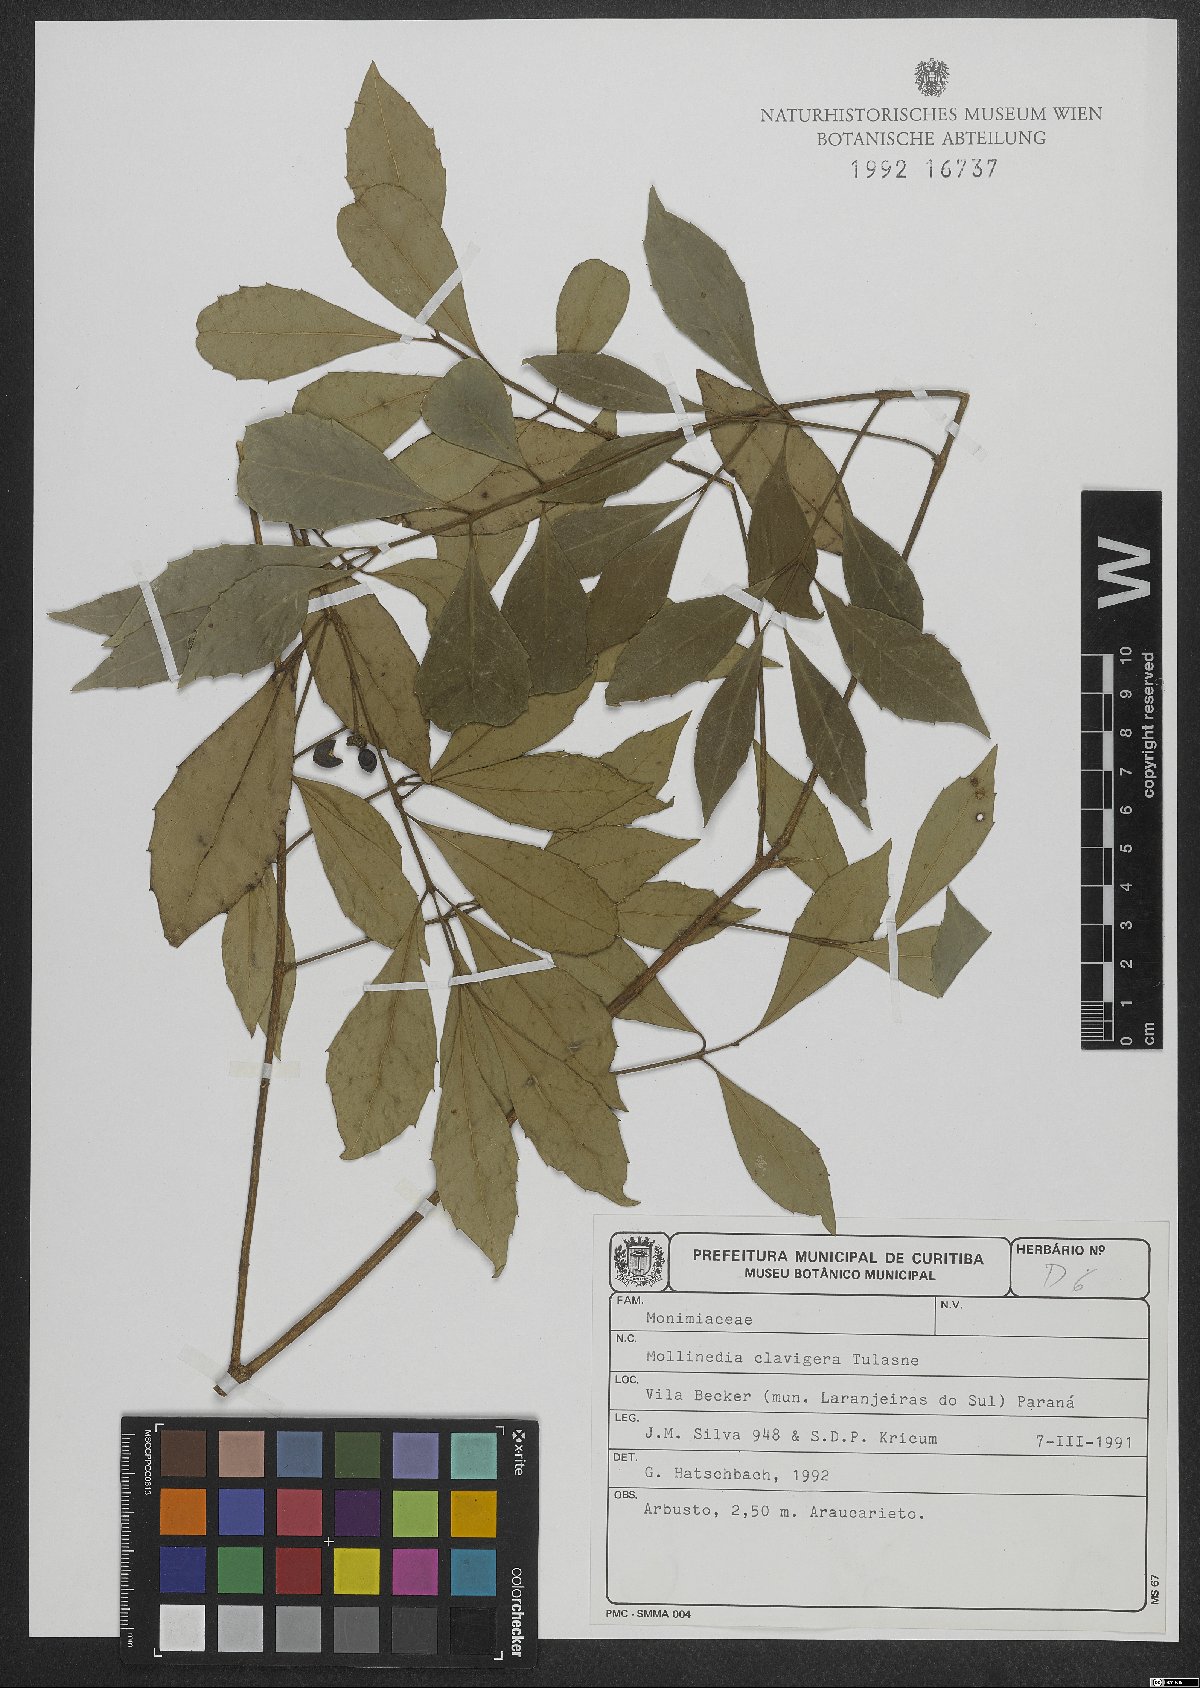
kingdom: Plantae
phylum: Tracheophyta
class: Magnoliopsida
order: Laurales
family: Monimiaceae
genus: Mollinedia
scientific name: Mollinedia clavigera
